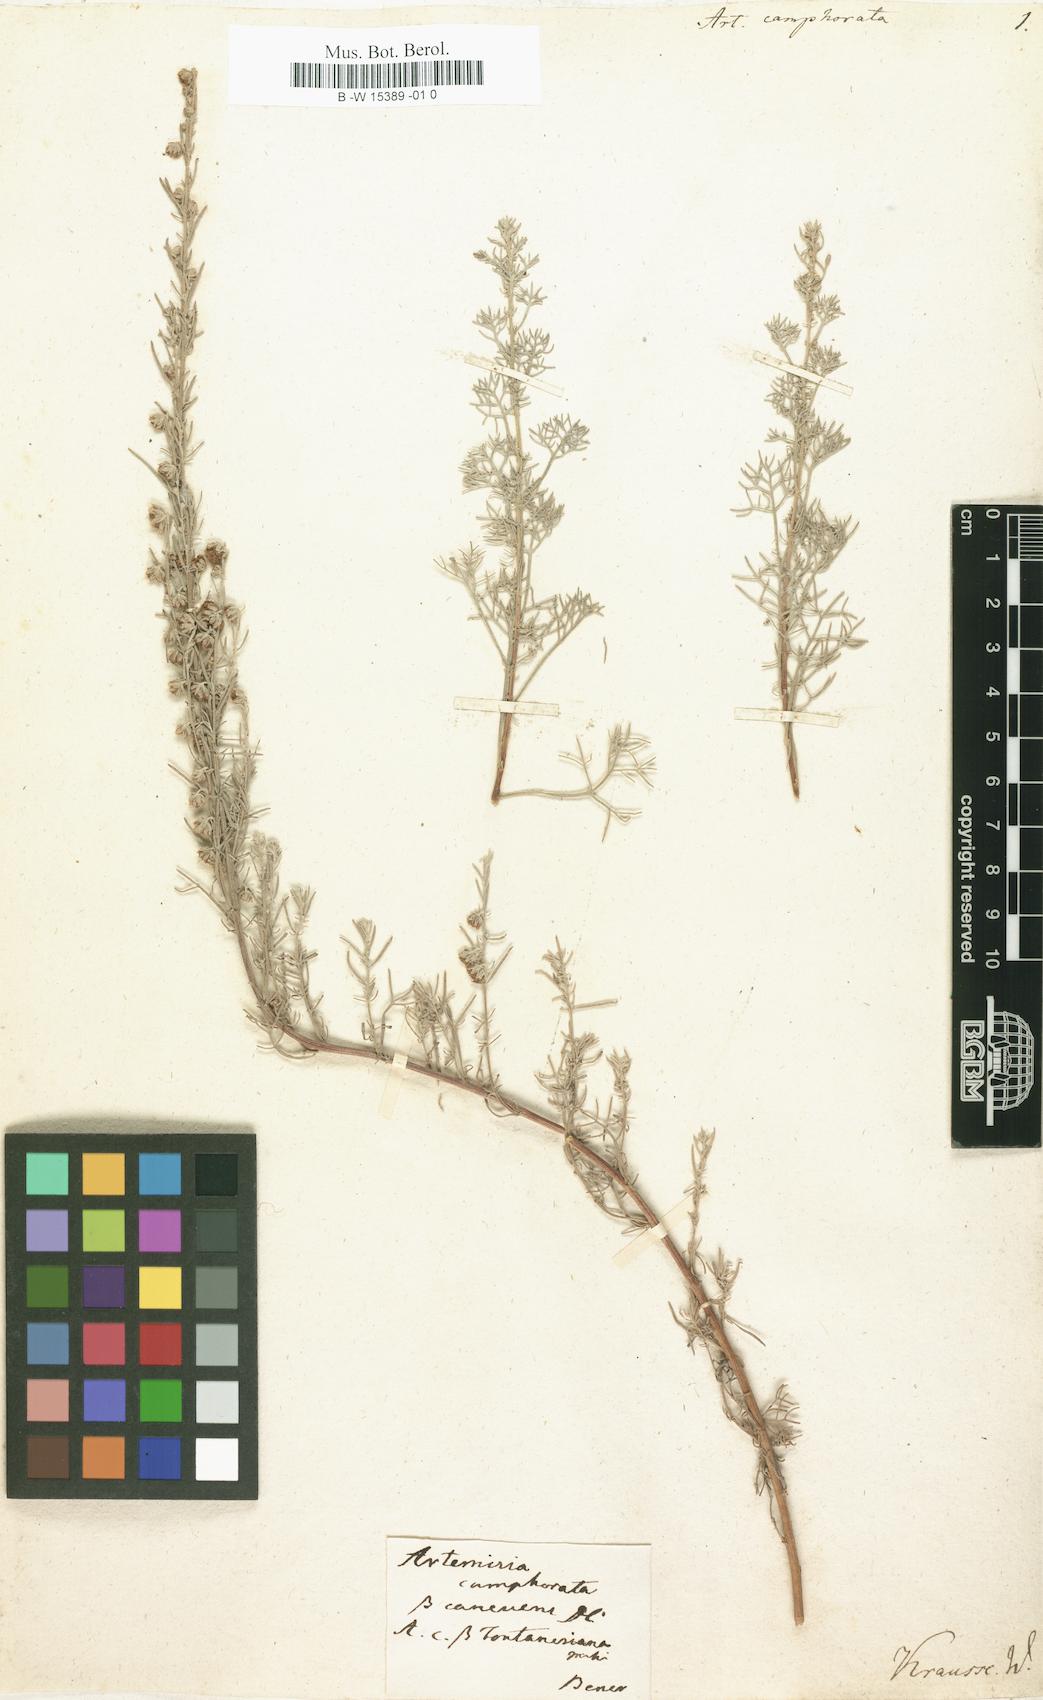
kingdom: Plantae
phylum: Tracheophyta
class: Magnoliopsida
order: Asterales
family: Asteraceae
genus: Artemisia
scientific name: Artemisia alba
